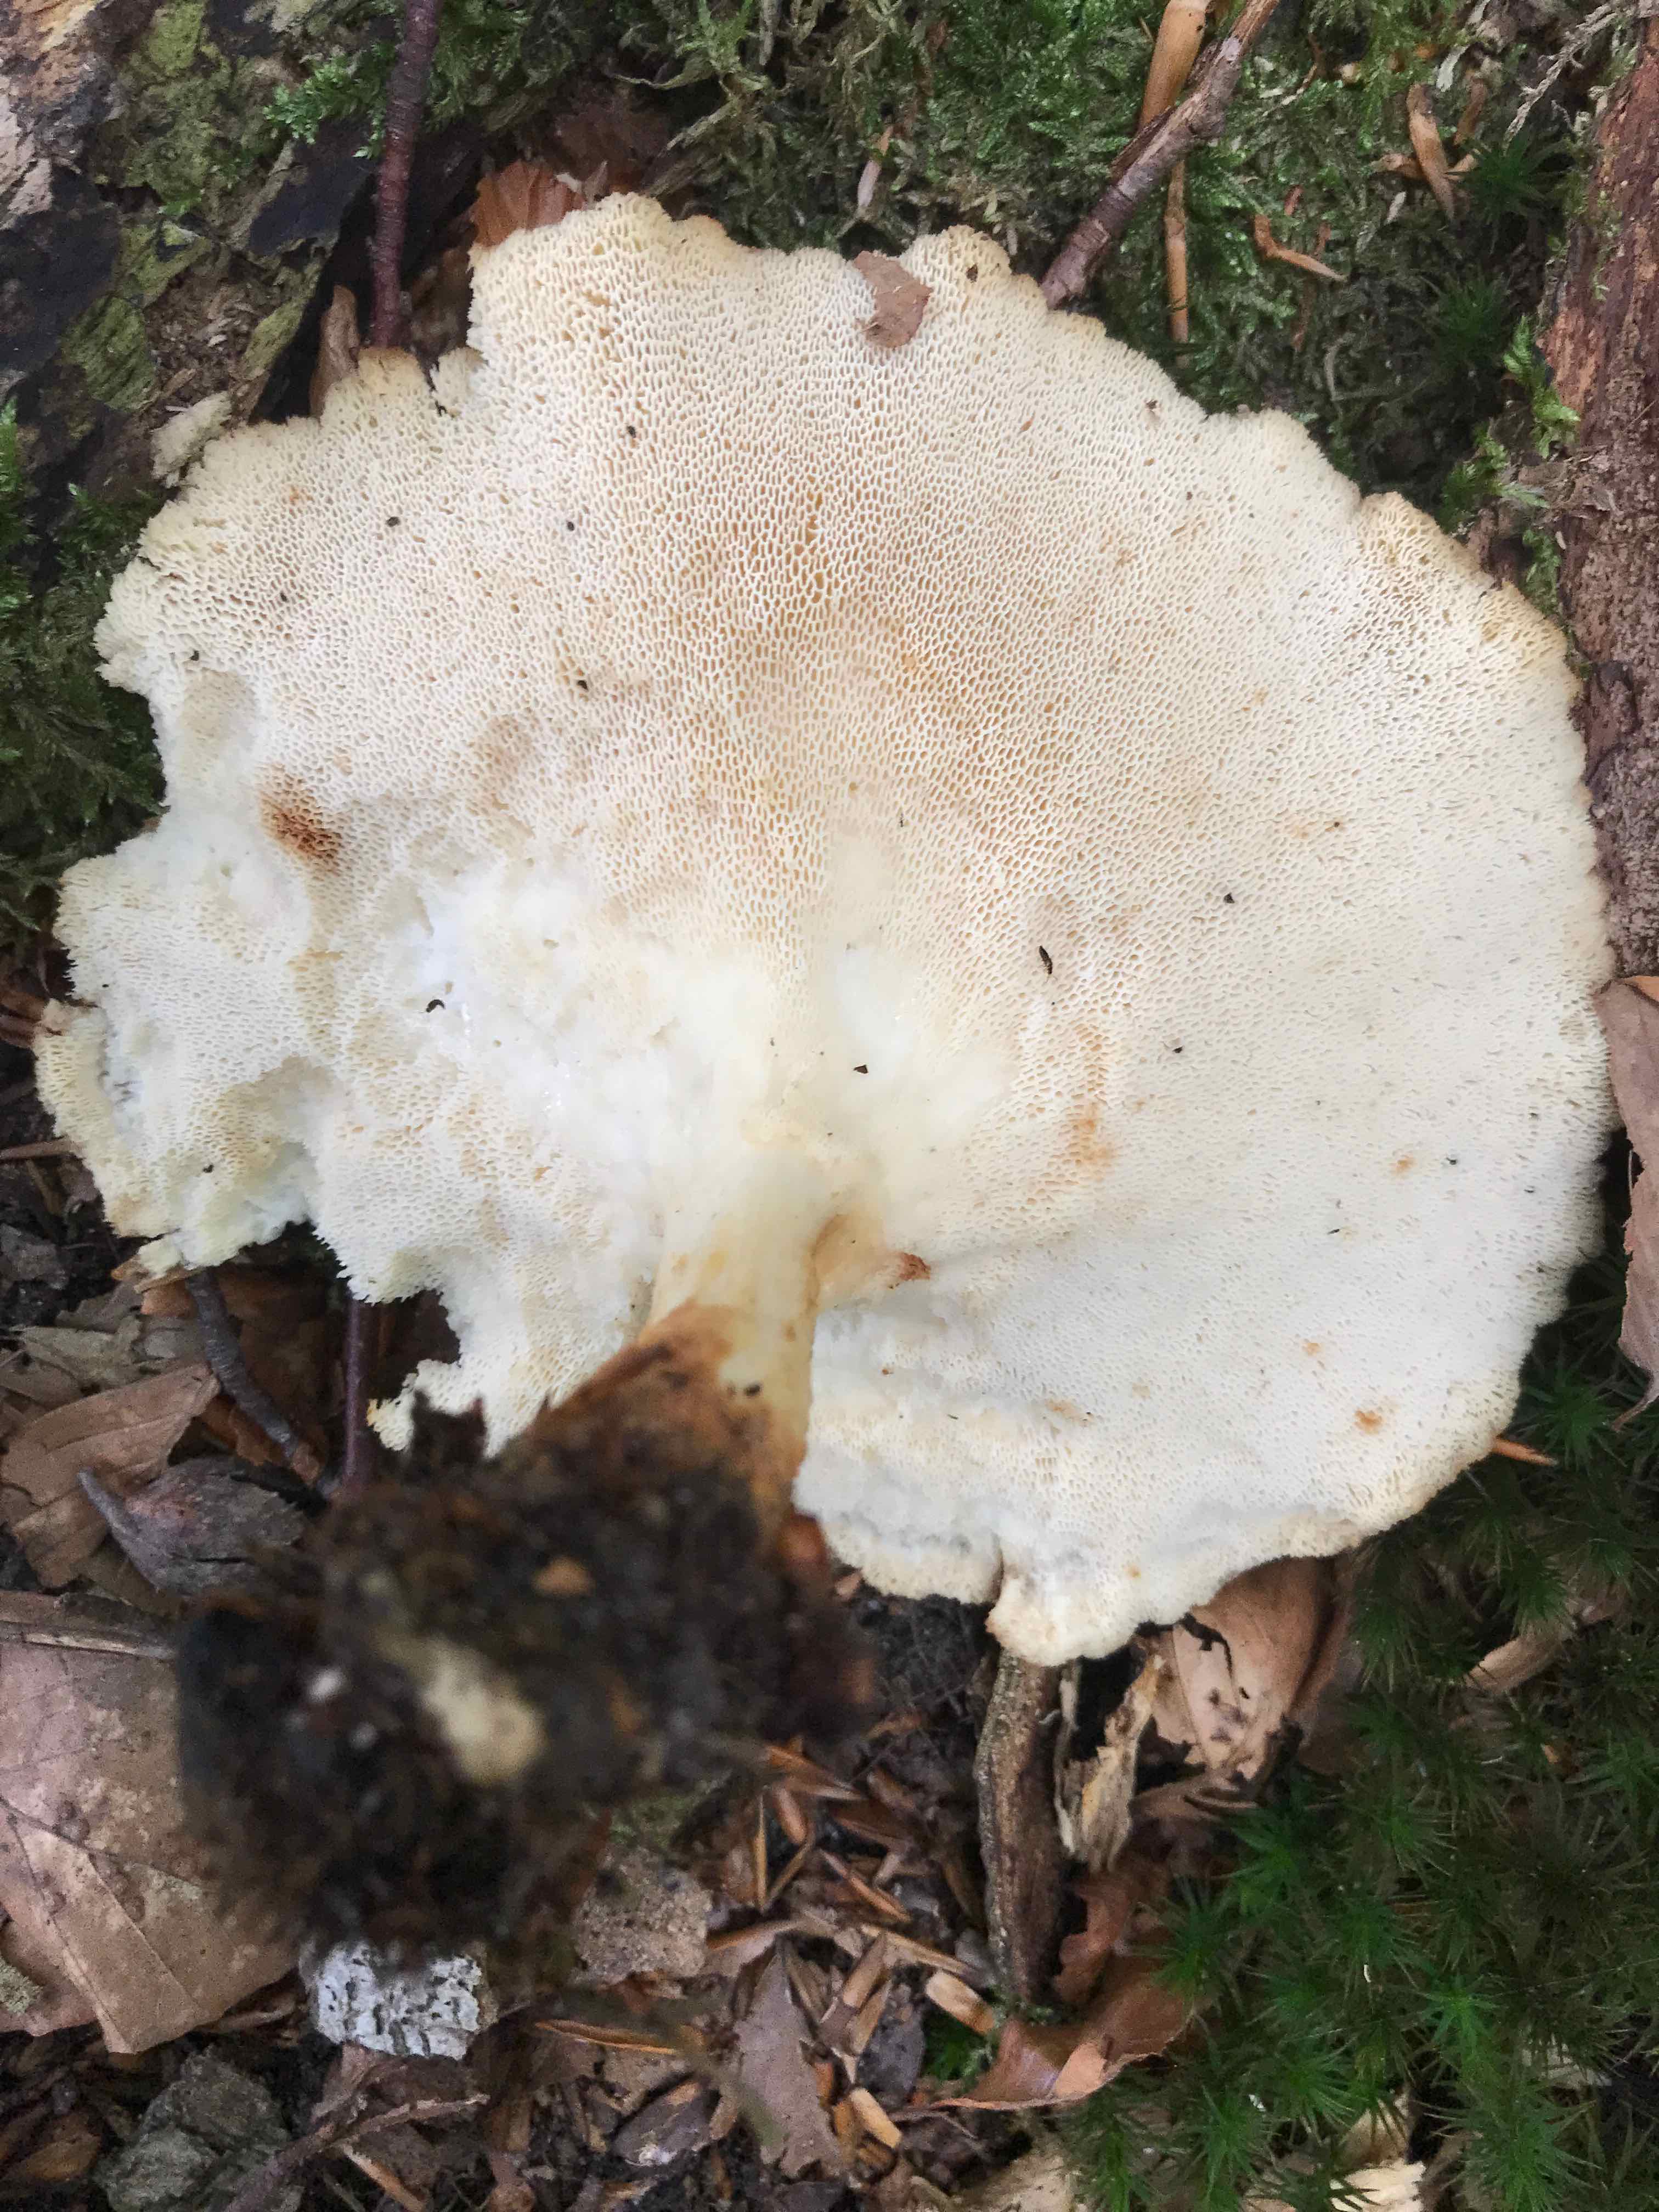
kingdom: Fungi
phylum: Basidiomycota
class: Agaricomycetes
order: Polyporales
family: Polyporaceae
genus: Polyporus
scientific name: Polyporus tuberaster
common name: knoldet stilkporesvamp
